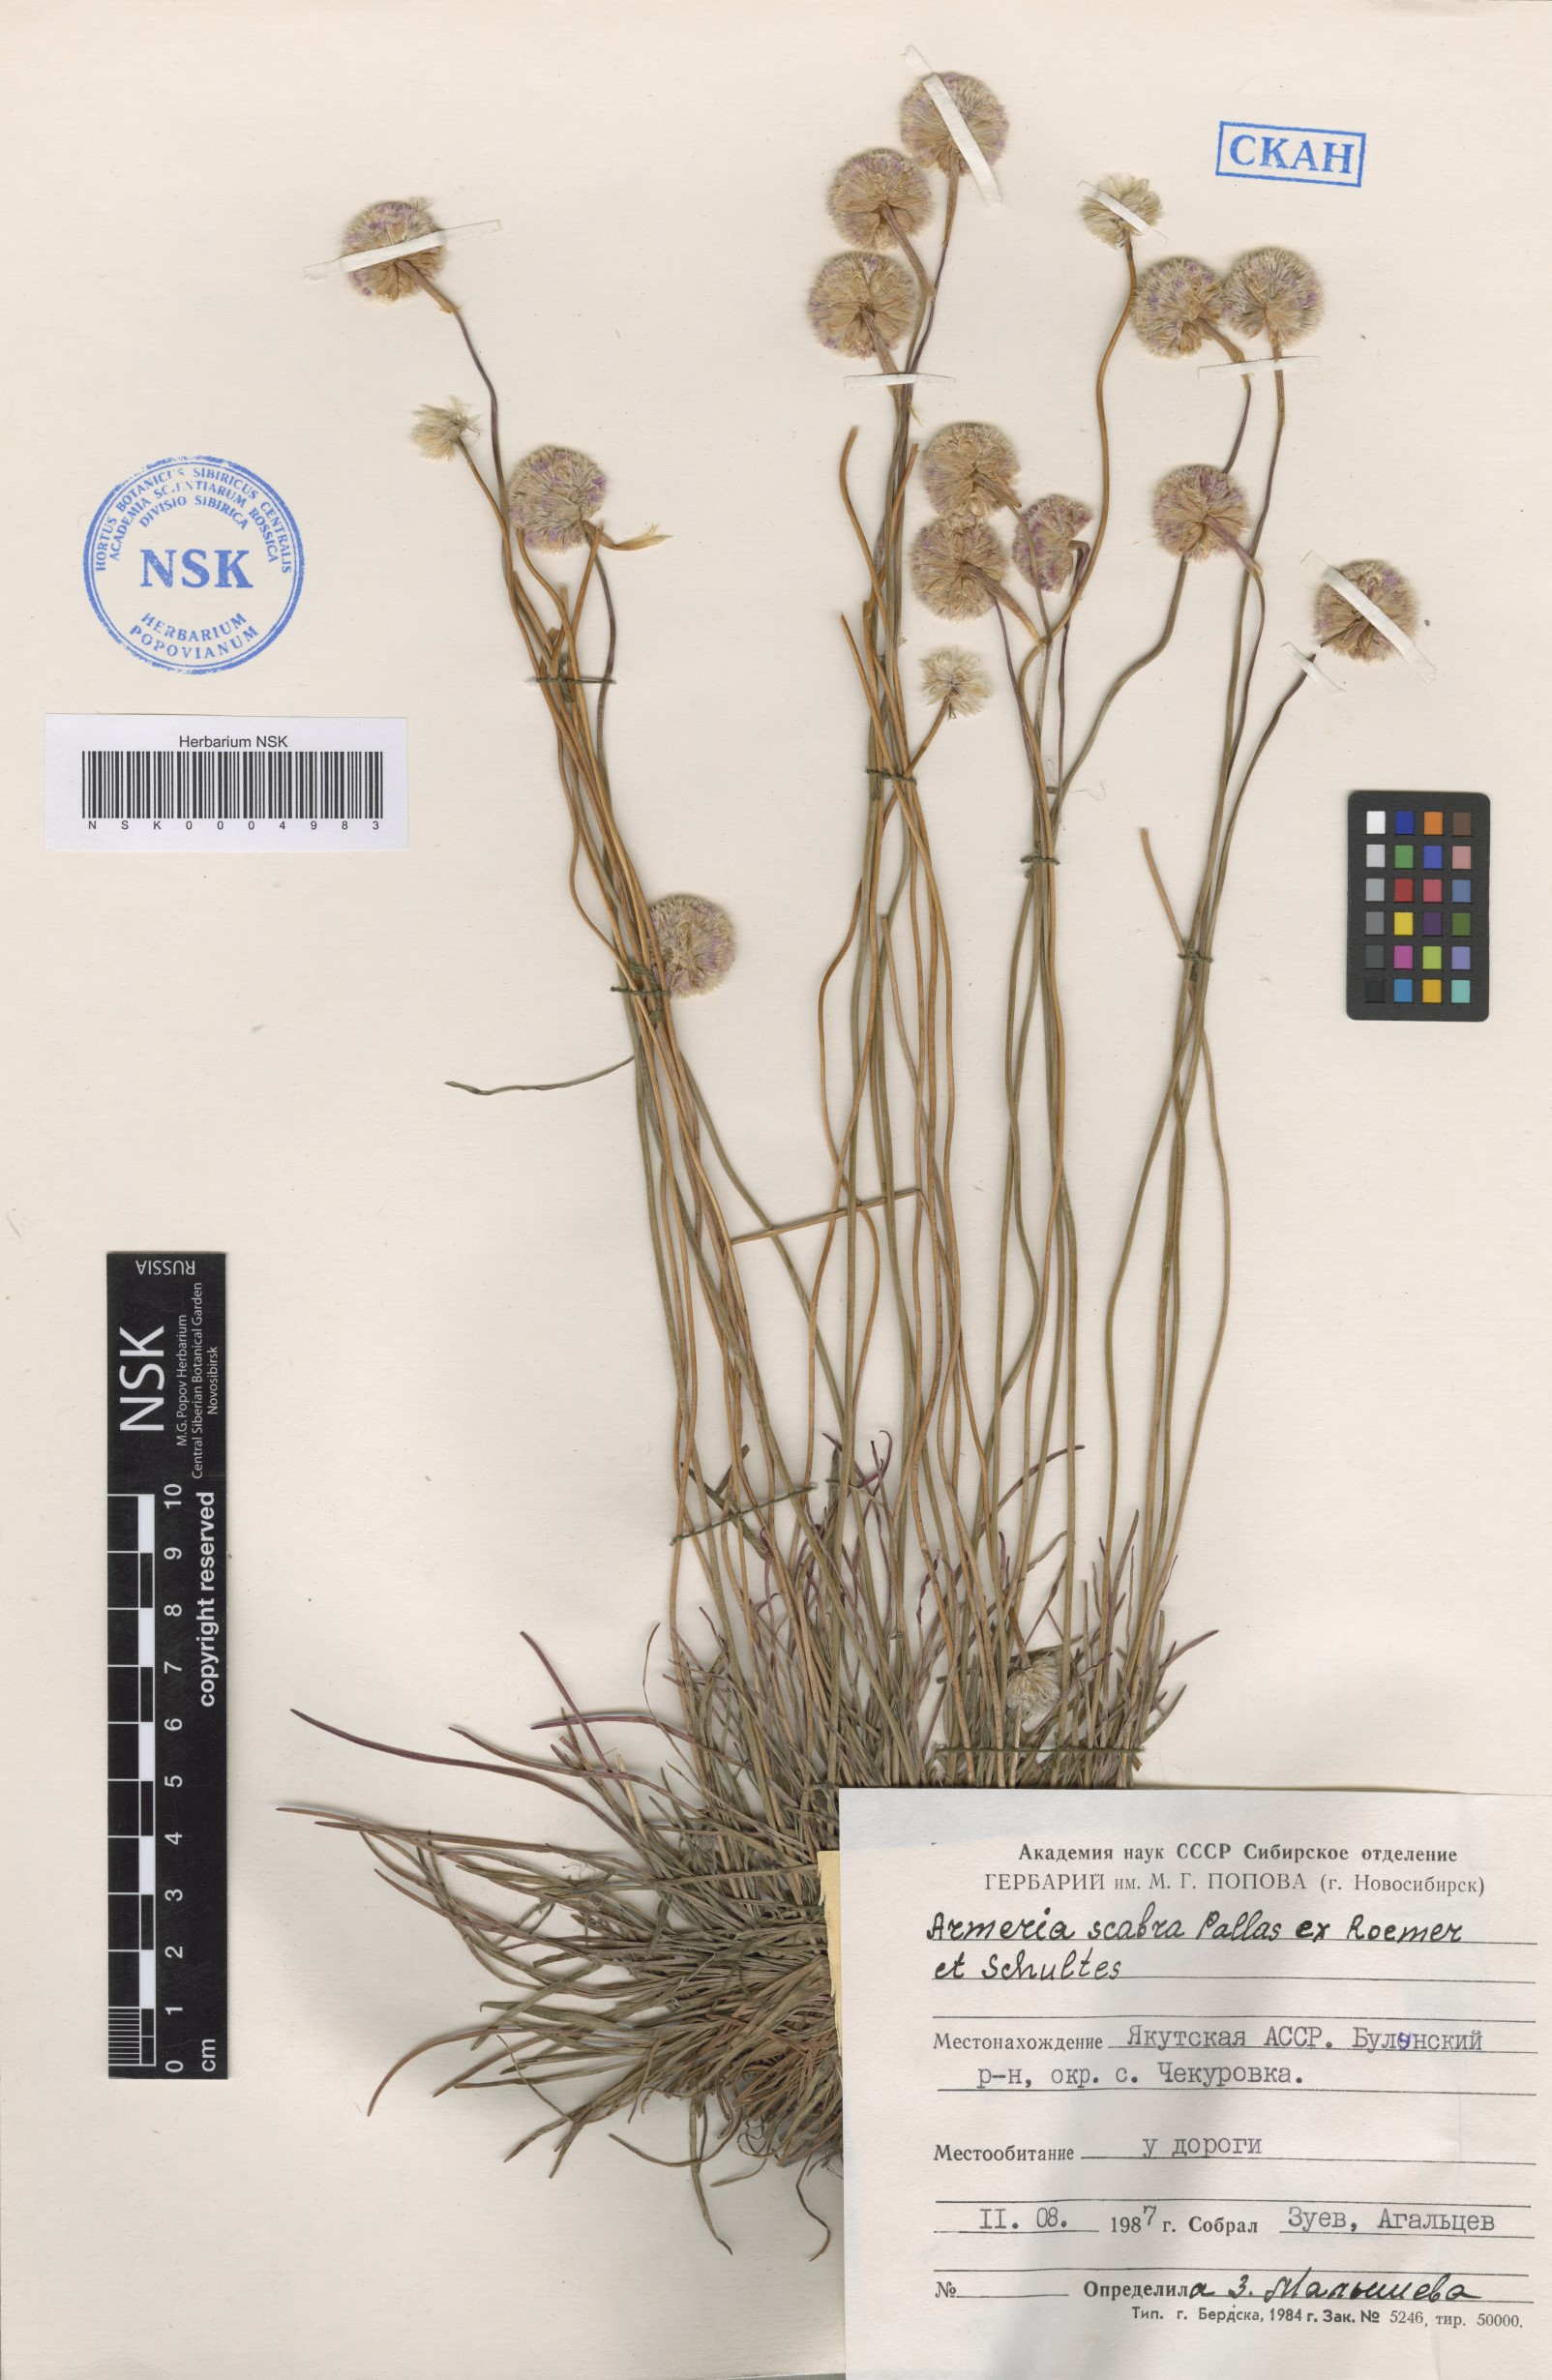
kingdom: Plantae
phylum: Tracheophyta
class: Magnoliopsida
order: Caryophyllales
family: Plumbaginaceae
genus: Armeria
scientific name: Armeria maritima
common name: Thrift
